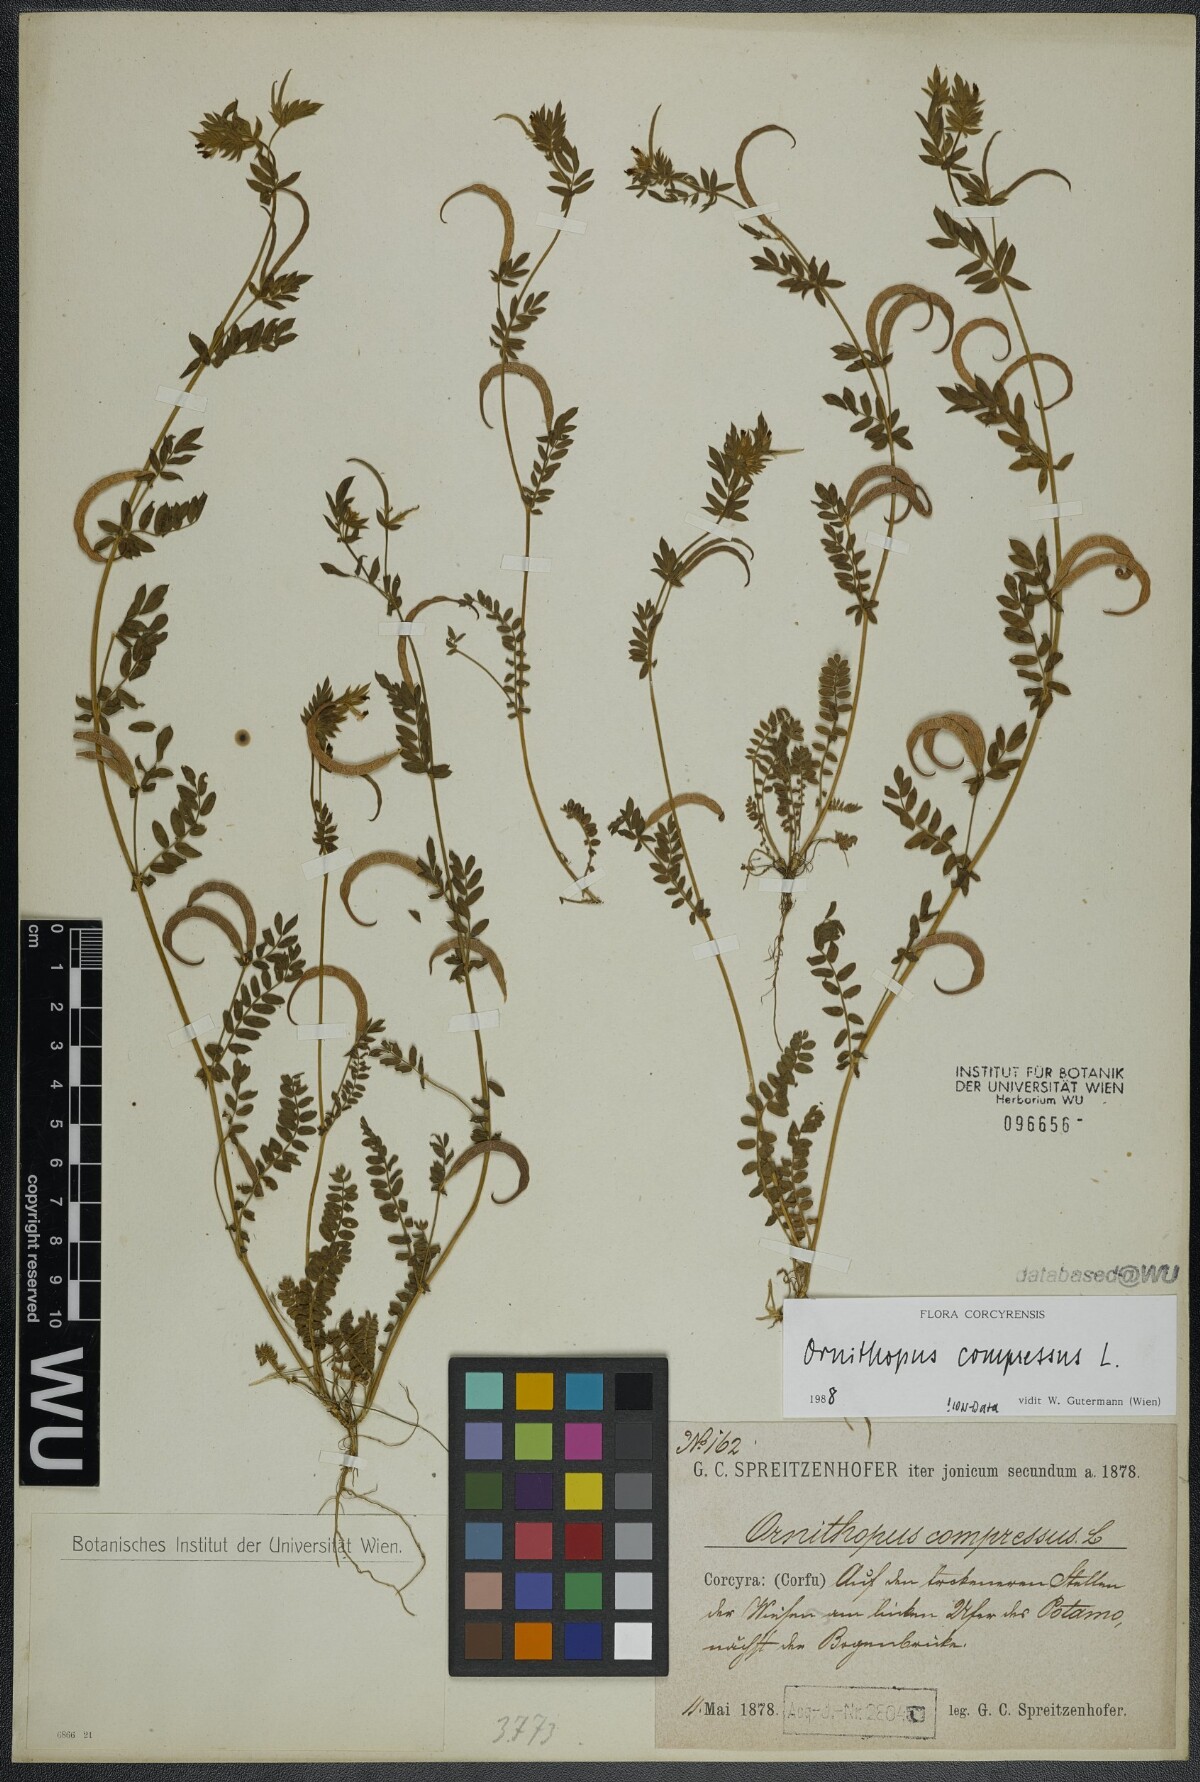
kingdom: Plantae
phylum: Tracheophyta
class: Magnoliopsida
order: Fabales
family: Fabaceae
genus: Ornithopus
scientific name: Ornithopus compressus
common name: Yellow serradella
